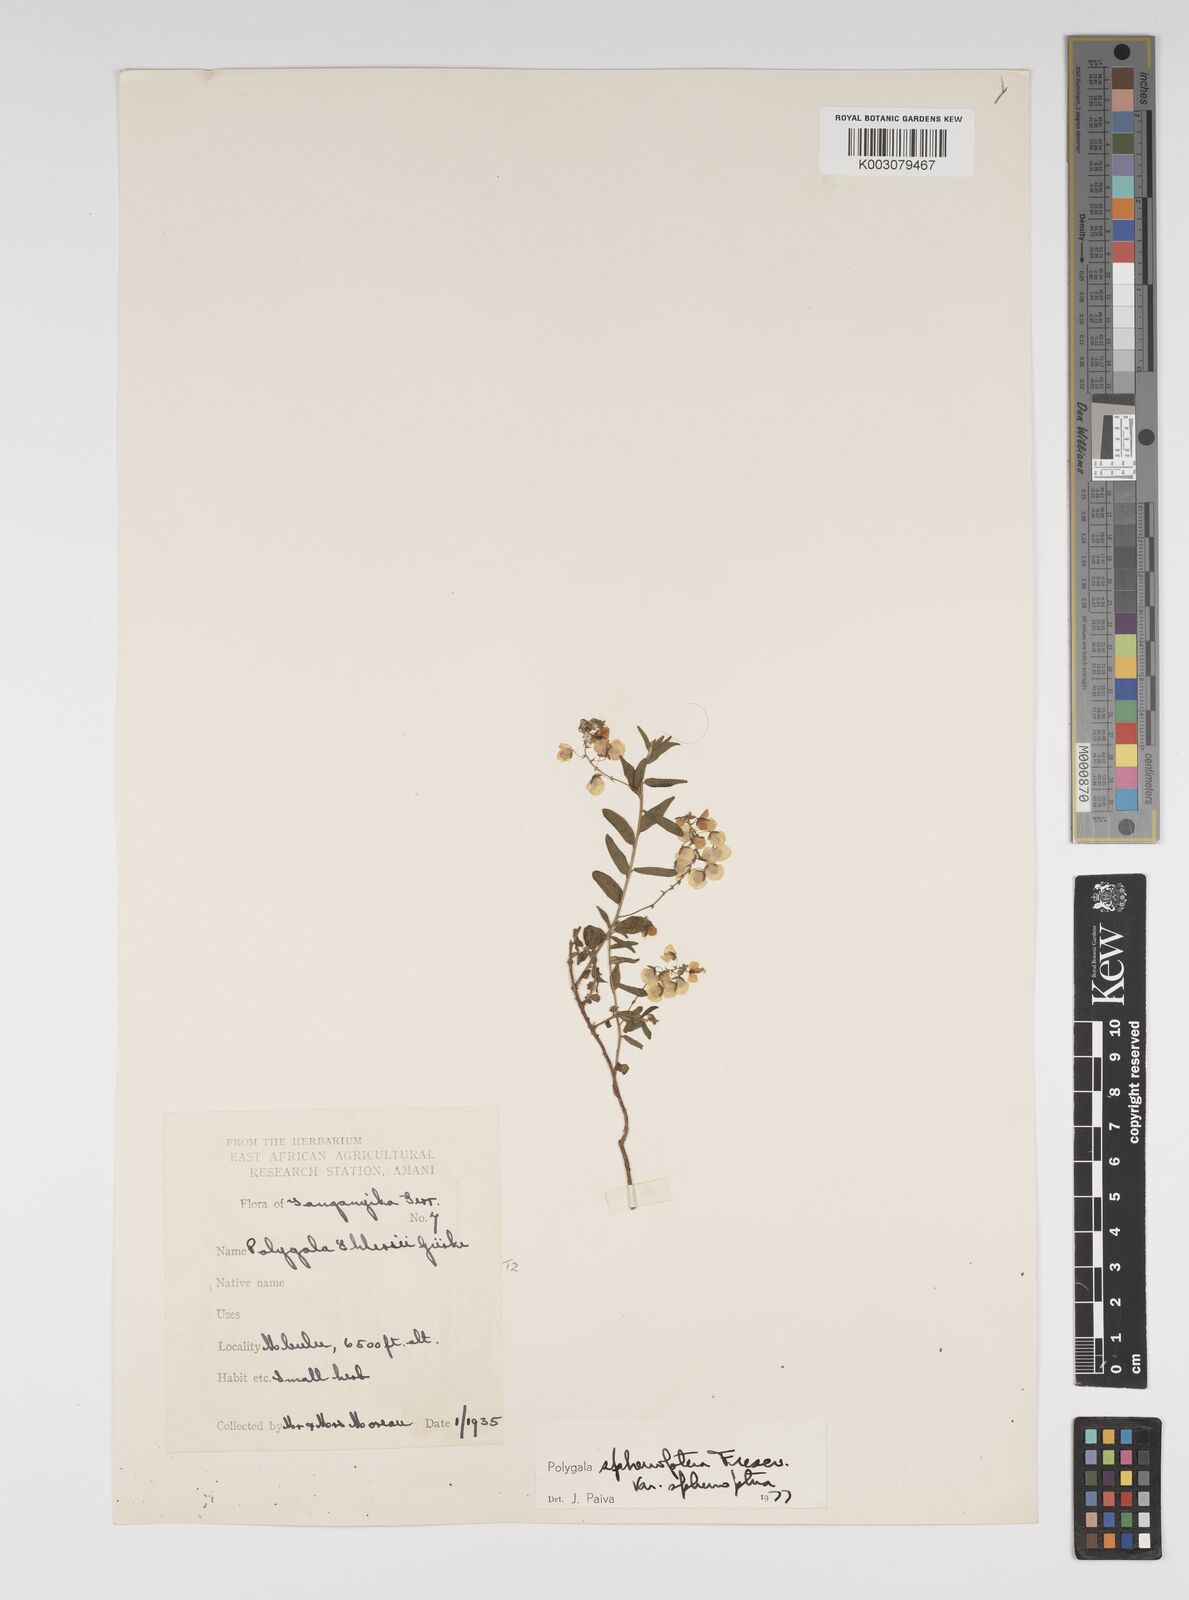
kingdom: Plantae
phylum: Tracheophyta
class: Magnoliopsida
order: Fabales
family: Polygalaceae
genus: Polygala
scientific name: Polygala sphenoptera
